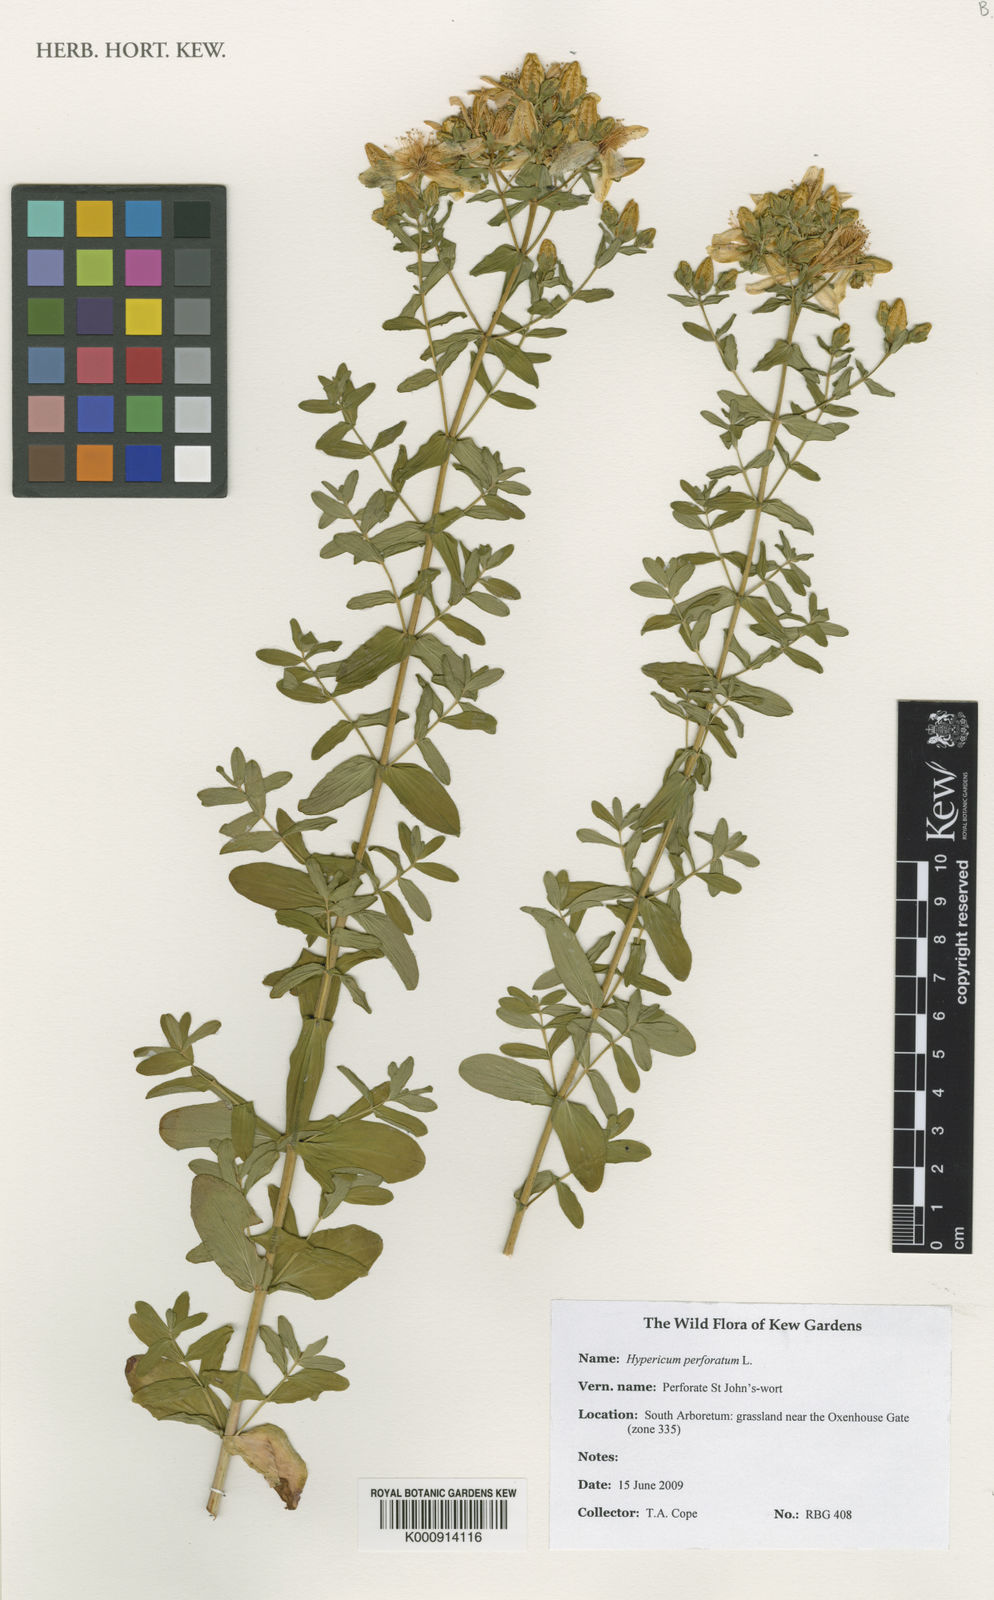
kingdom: Plantae
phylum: Tracheophyta
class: Magnoliopsida
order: Malpighiales
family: Hypericaceae
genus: Hypericum
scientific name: Hypericum perforatum
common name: Common st. johnswort
